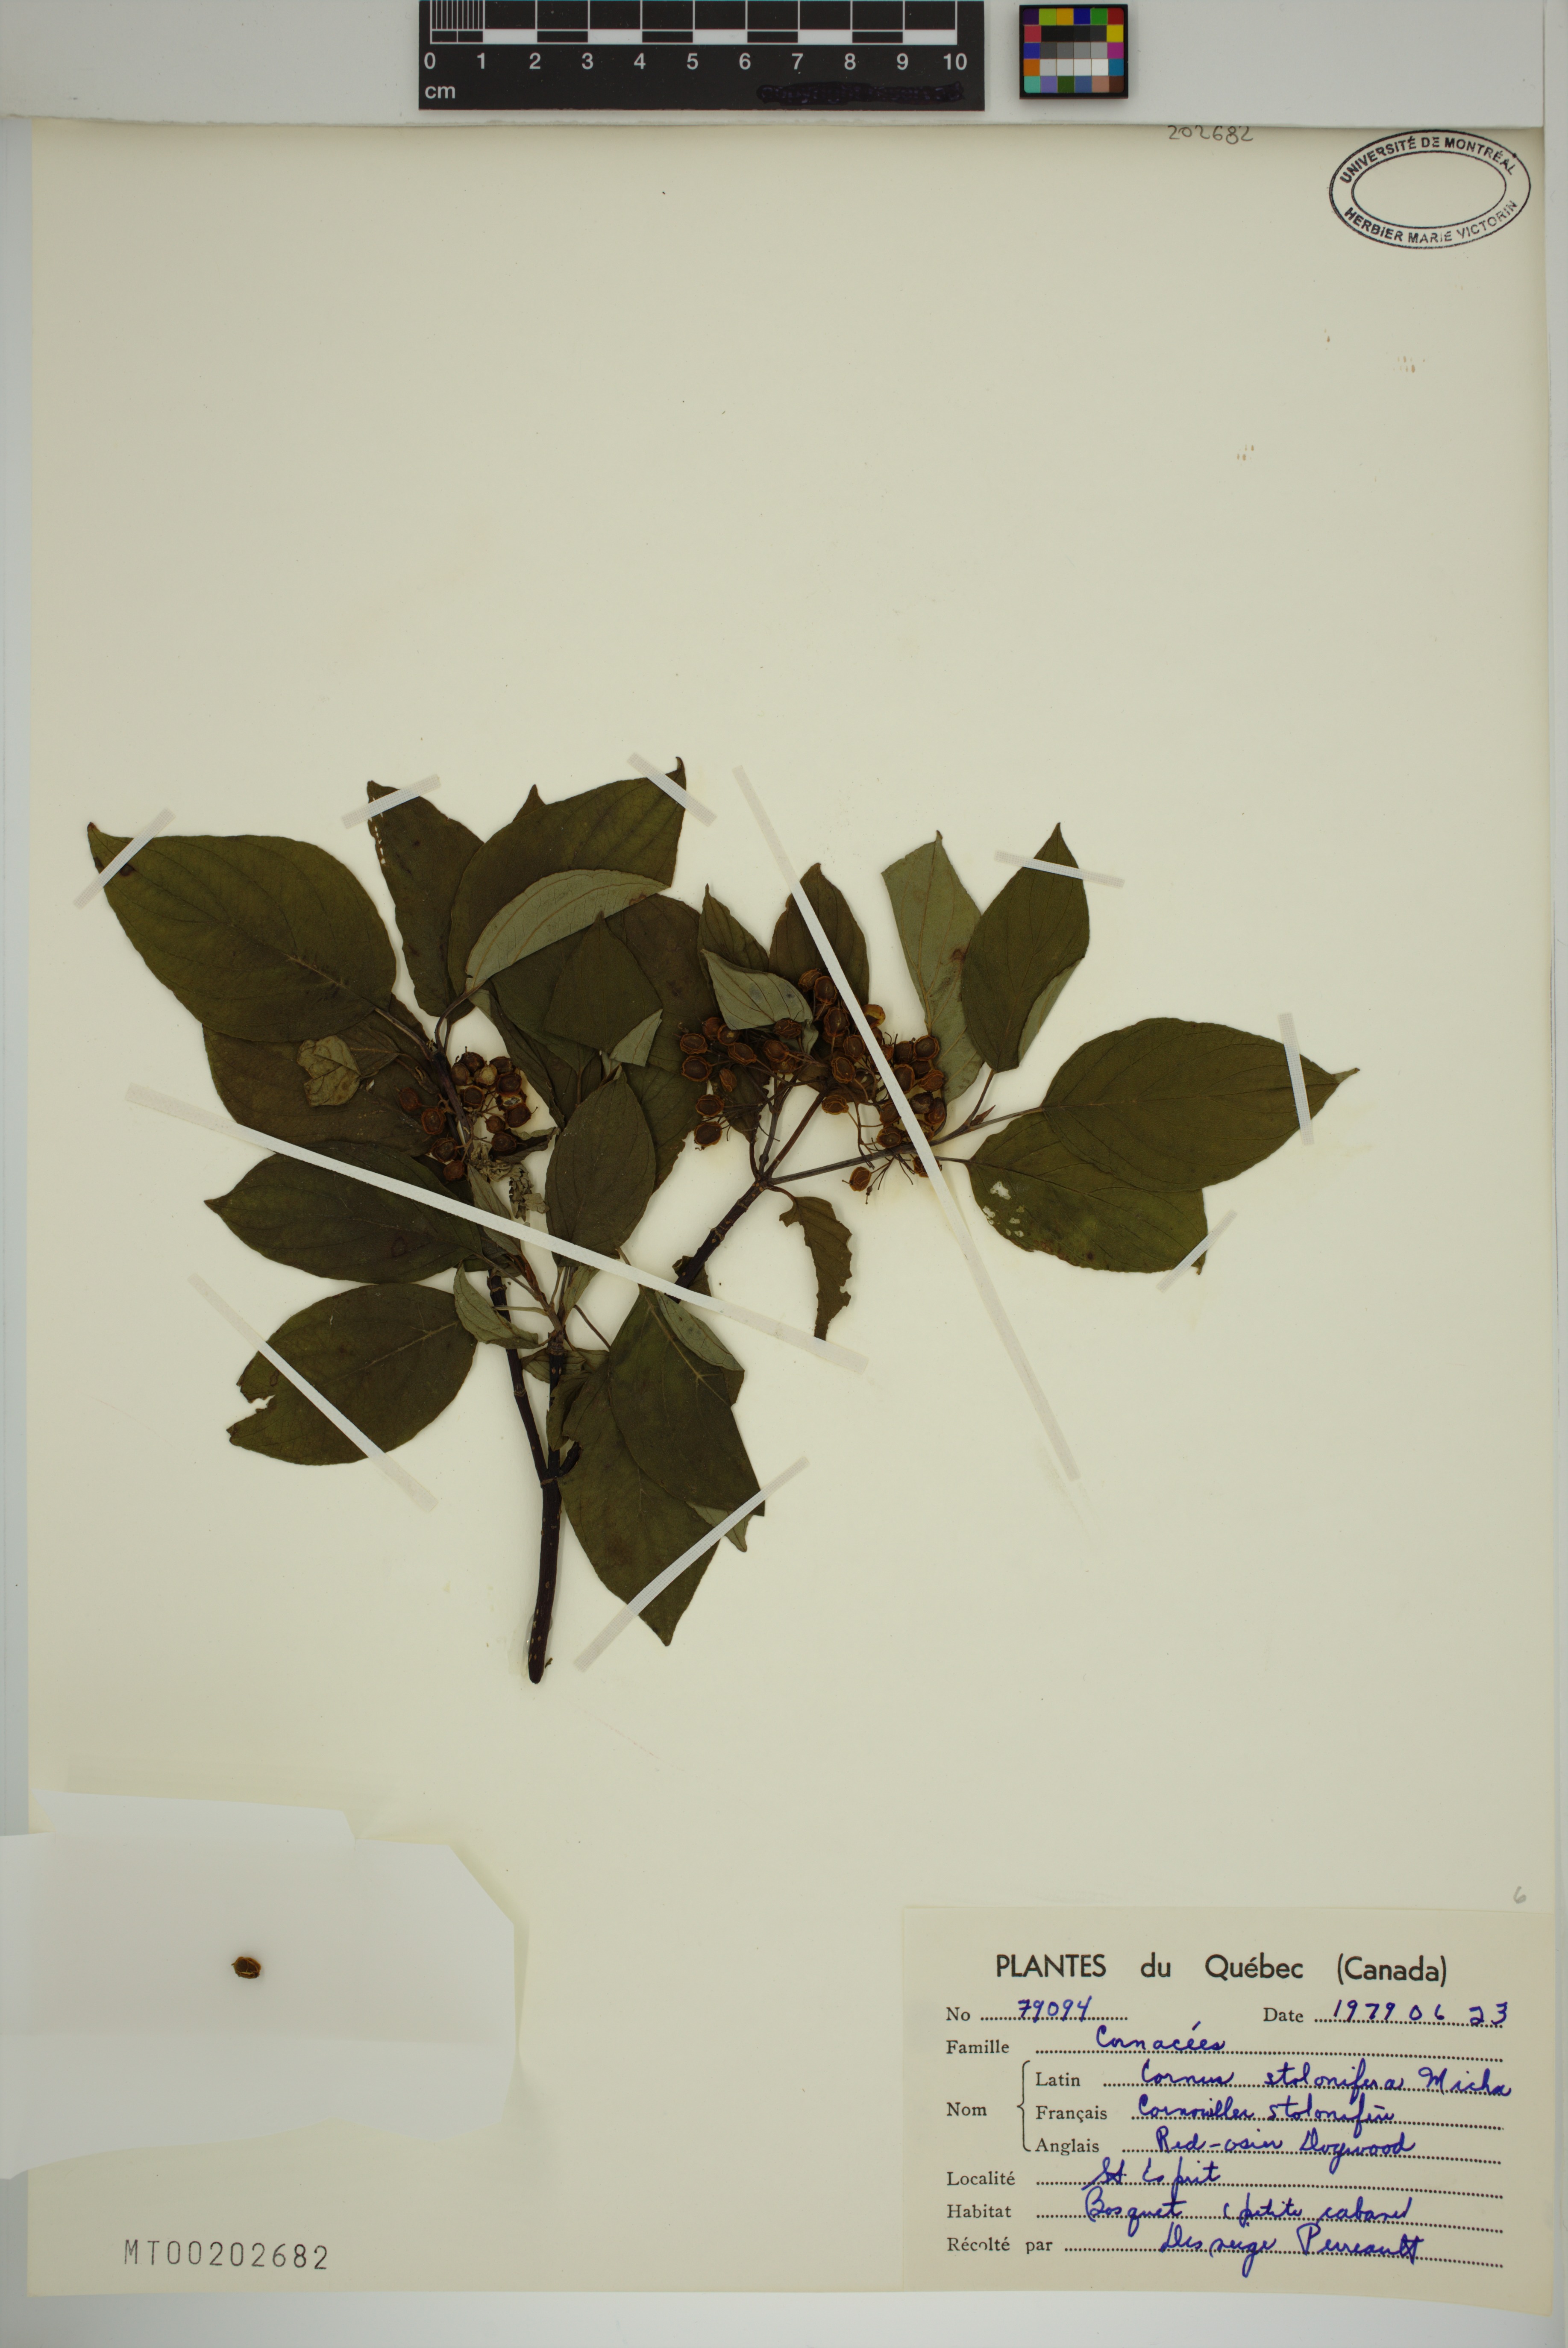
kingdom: Plantae
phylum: Tracheophyta
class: Magnoliopsida
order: Cornales
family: Cornaceae
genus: Cornus
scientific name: Cornus sericea
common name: Red-osier dogwood
